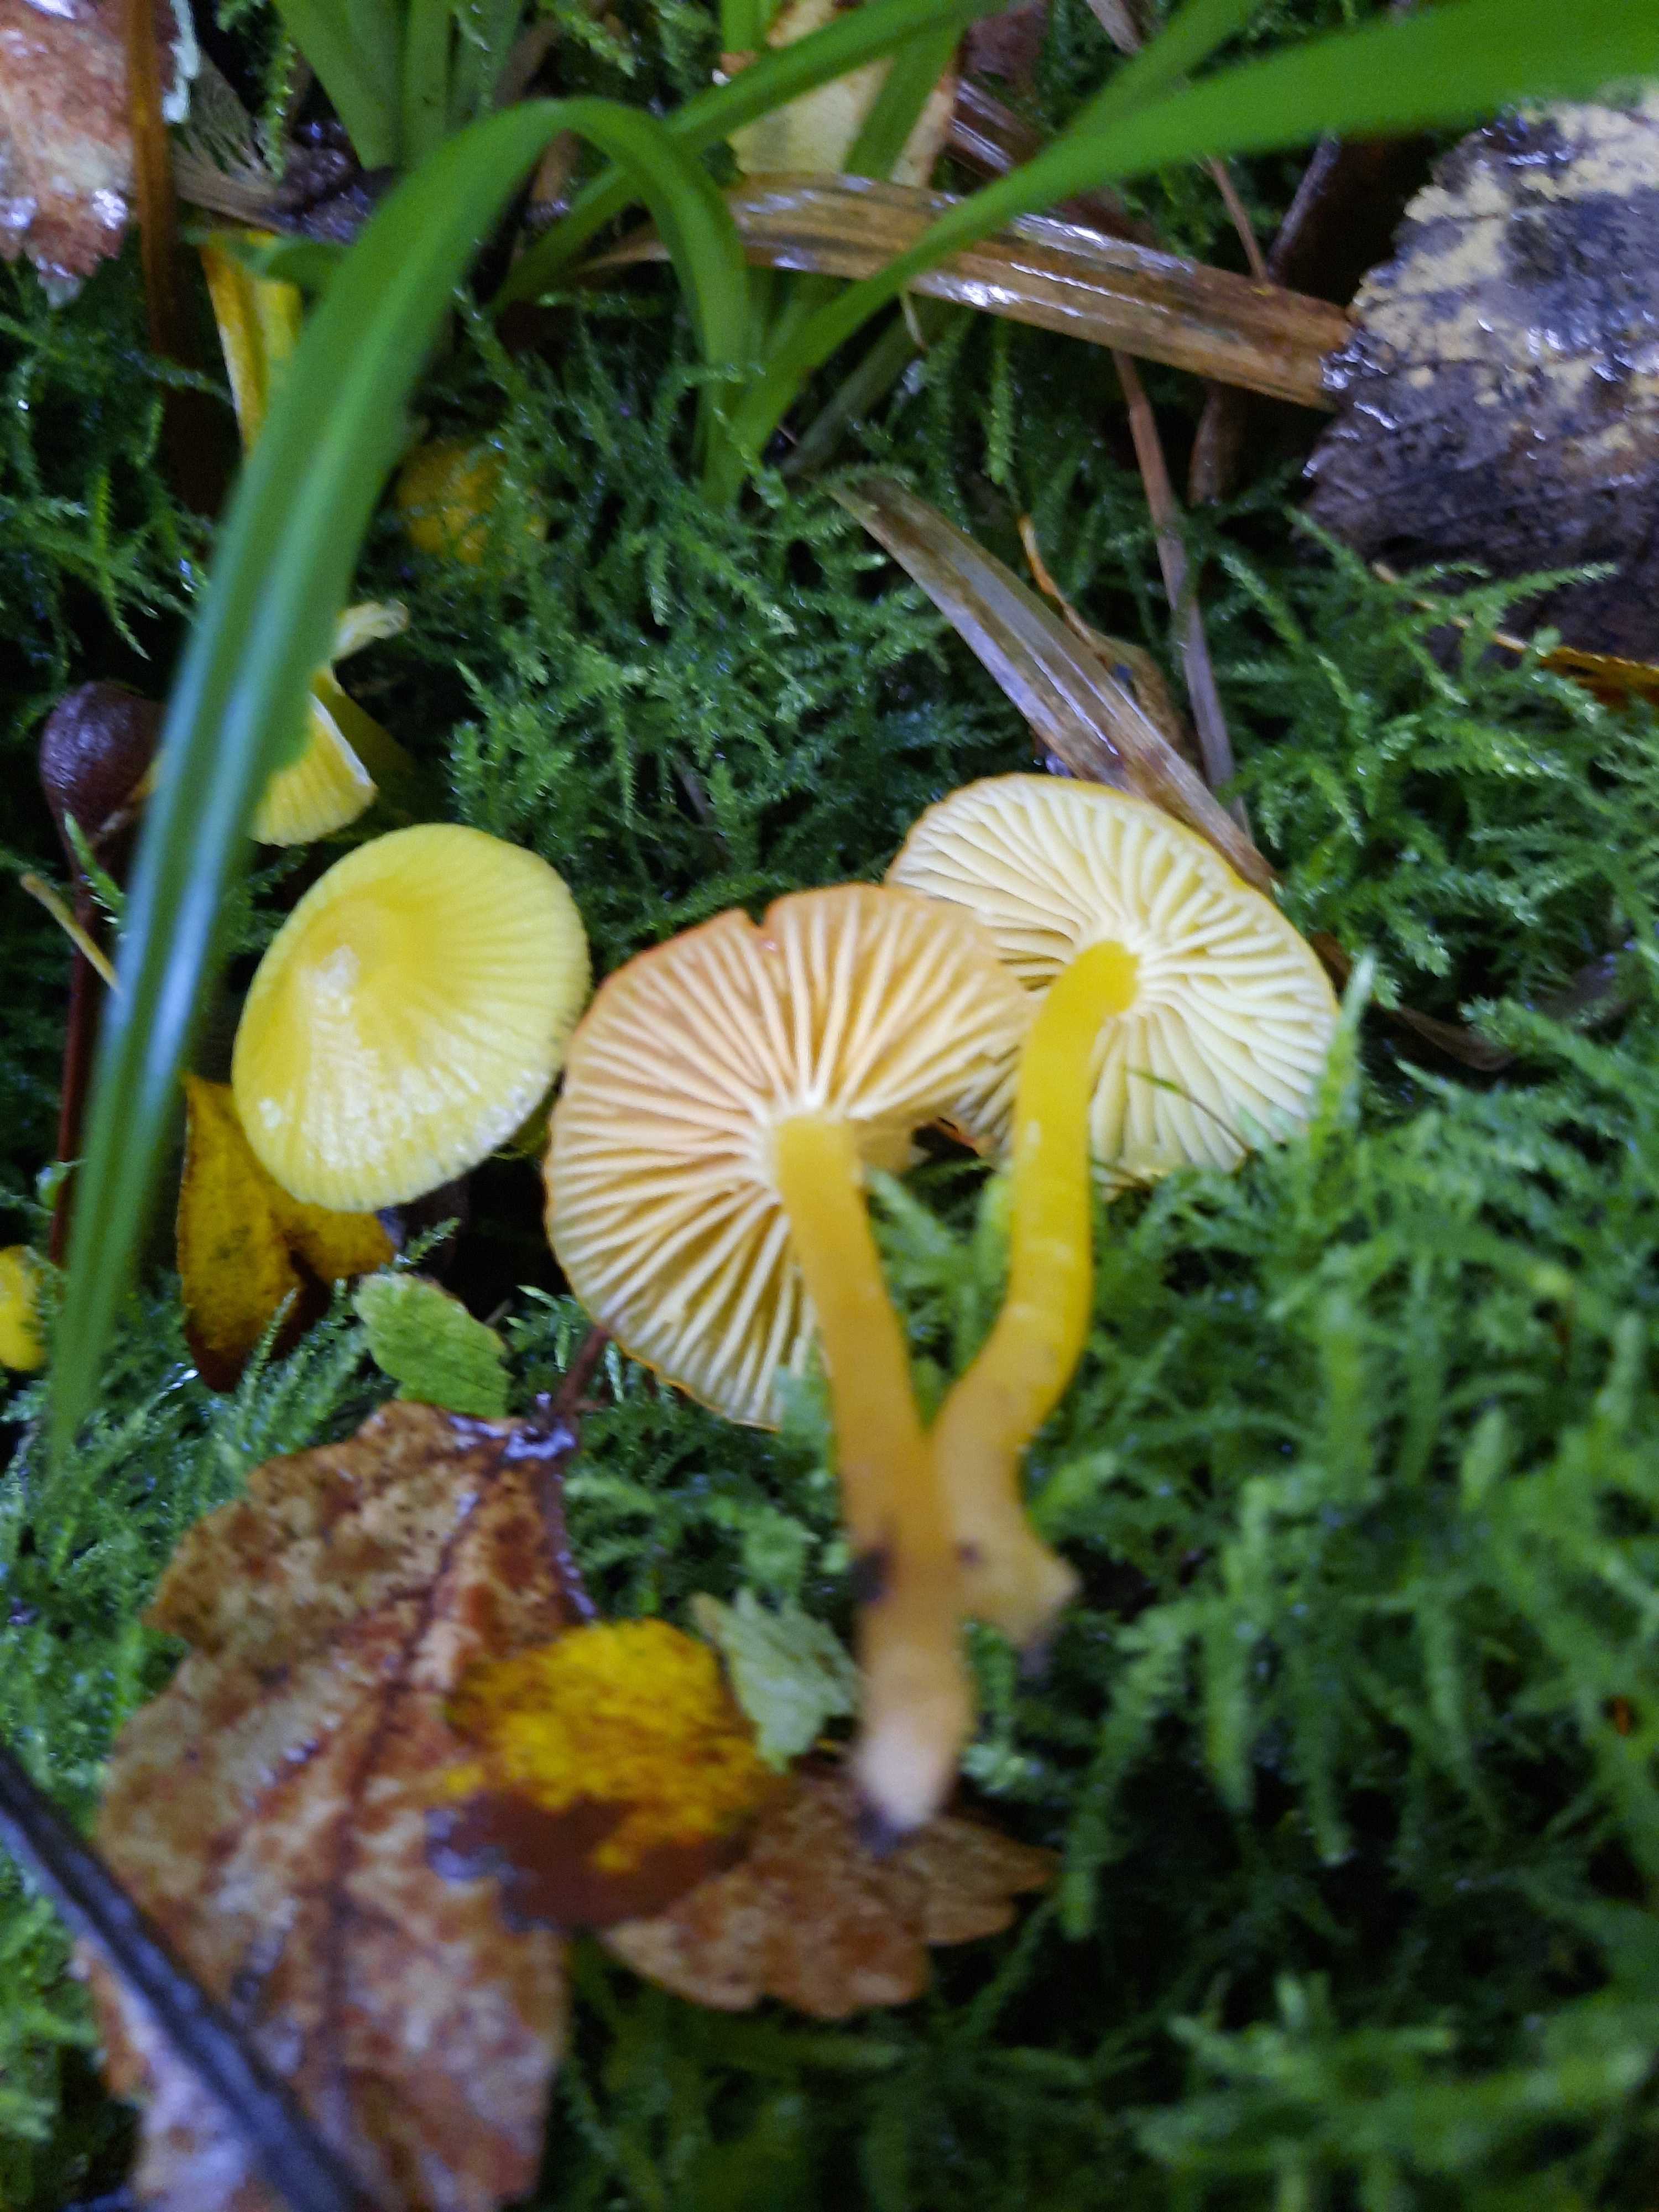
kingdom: Fungi
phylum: Basidiomycota
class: Agaricomycetes
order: Agaricales
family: Hygrophoraceae
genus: Hygrocybe
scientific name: Hygrocybe ceracea
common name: voksgul vokshat
